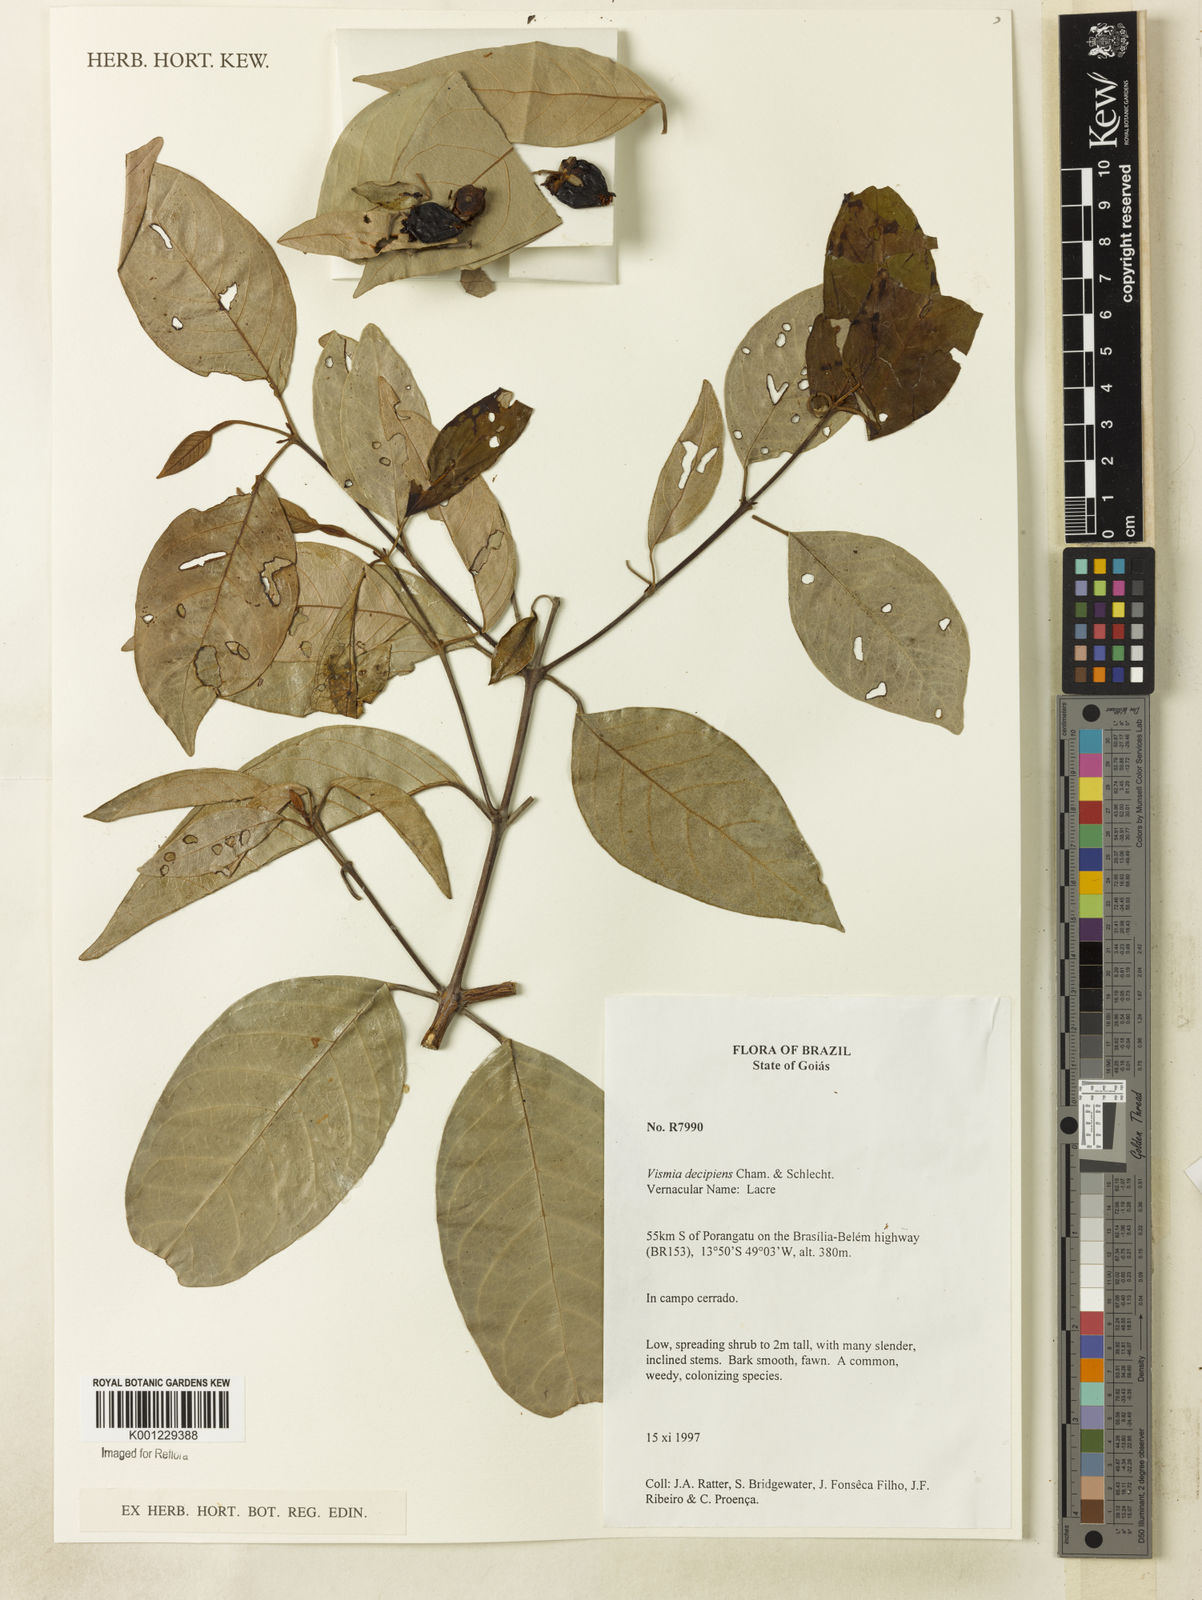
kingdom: Plantae
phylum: Tracheophyta
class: Magnoliopsida
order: Malpighiales
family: Hypericaceae
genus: Vismia
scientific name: Vismia pentagyna
